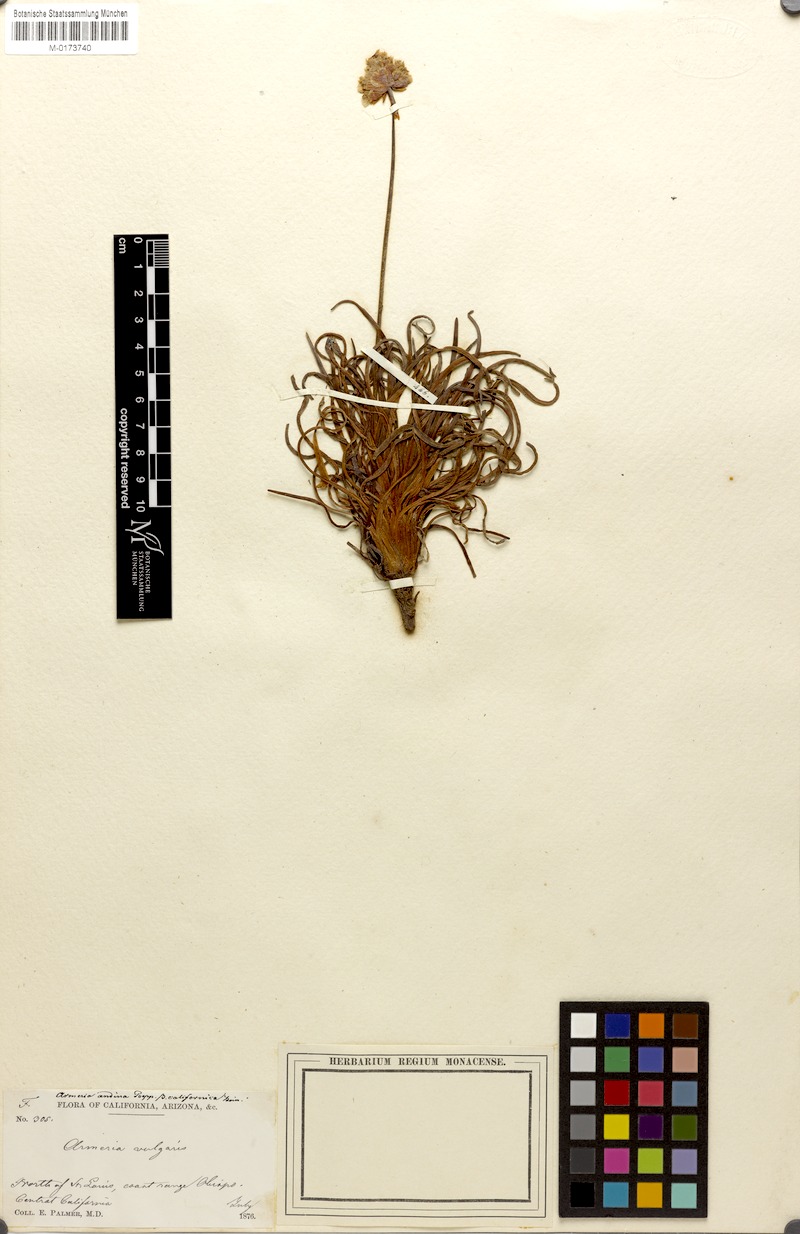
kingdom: Plantae
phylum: Tracheophyta
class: Magnoliopsida
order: Caryophyllales
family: Plumbaginaceae
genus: Armeria
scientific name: Armeria maritima
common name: Thrift
